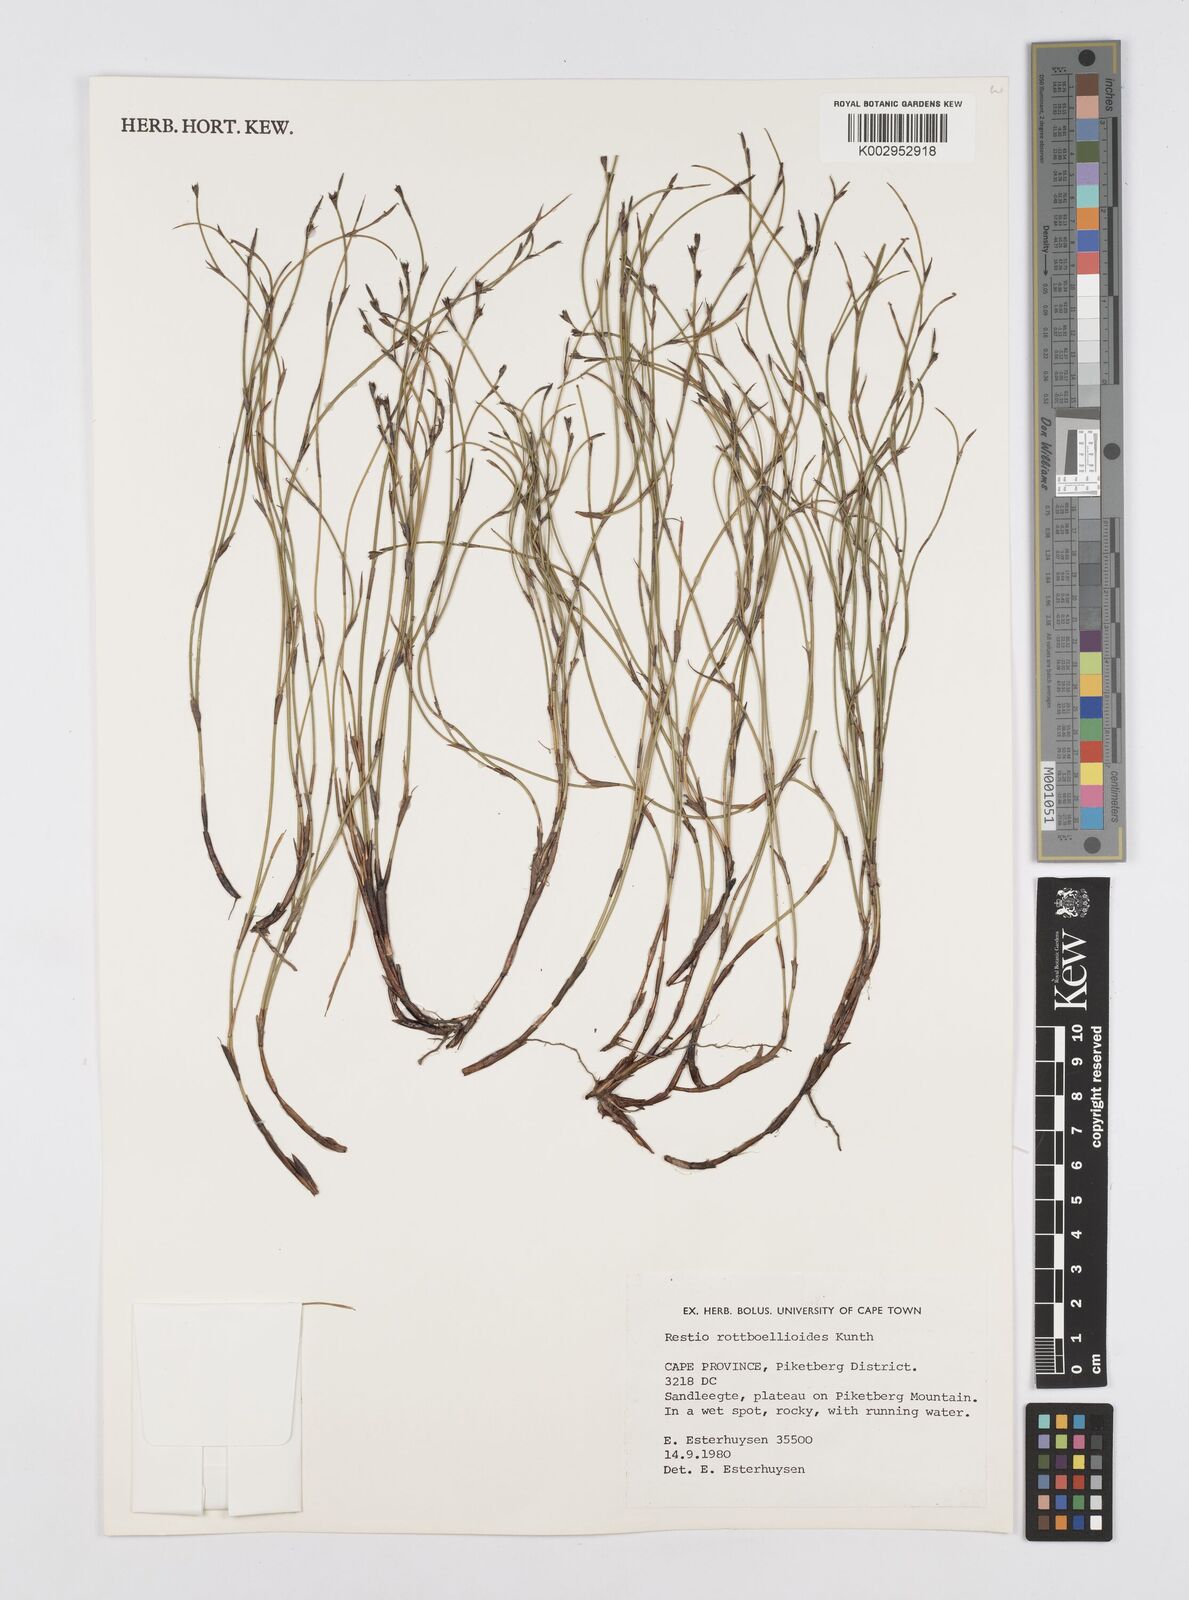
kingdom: Plantae
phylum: Tracheophyta
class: Liliopsida
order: Poales
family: Restionaceae
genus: Restio
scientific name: Restio rottboellioides
